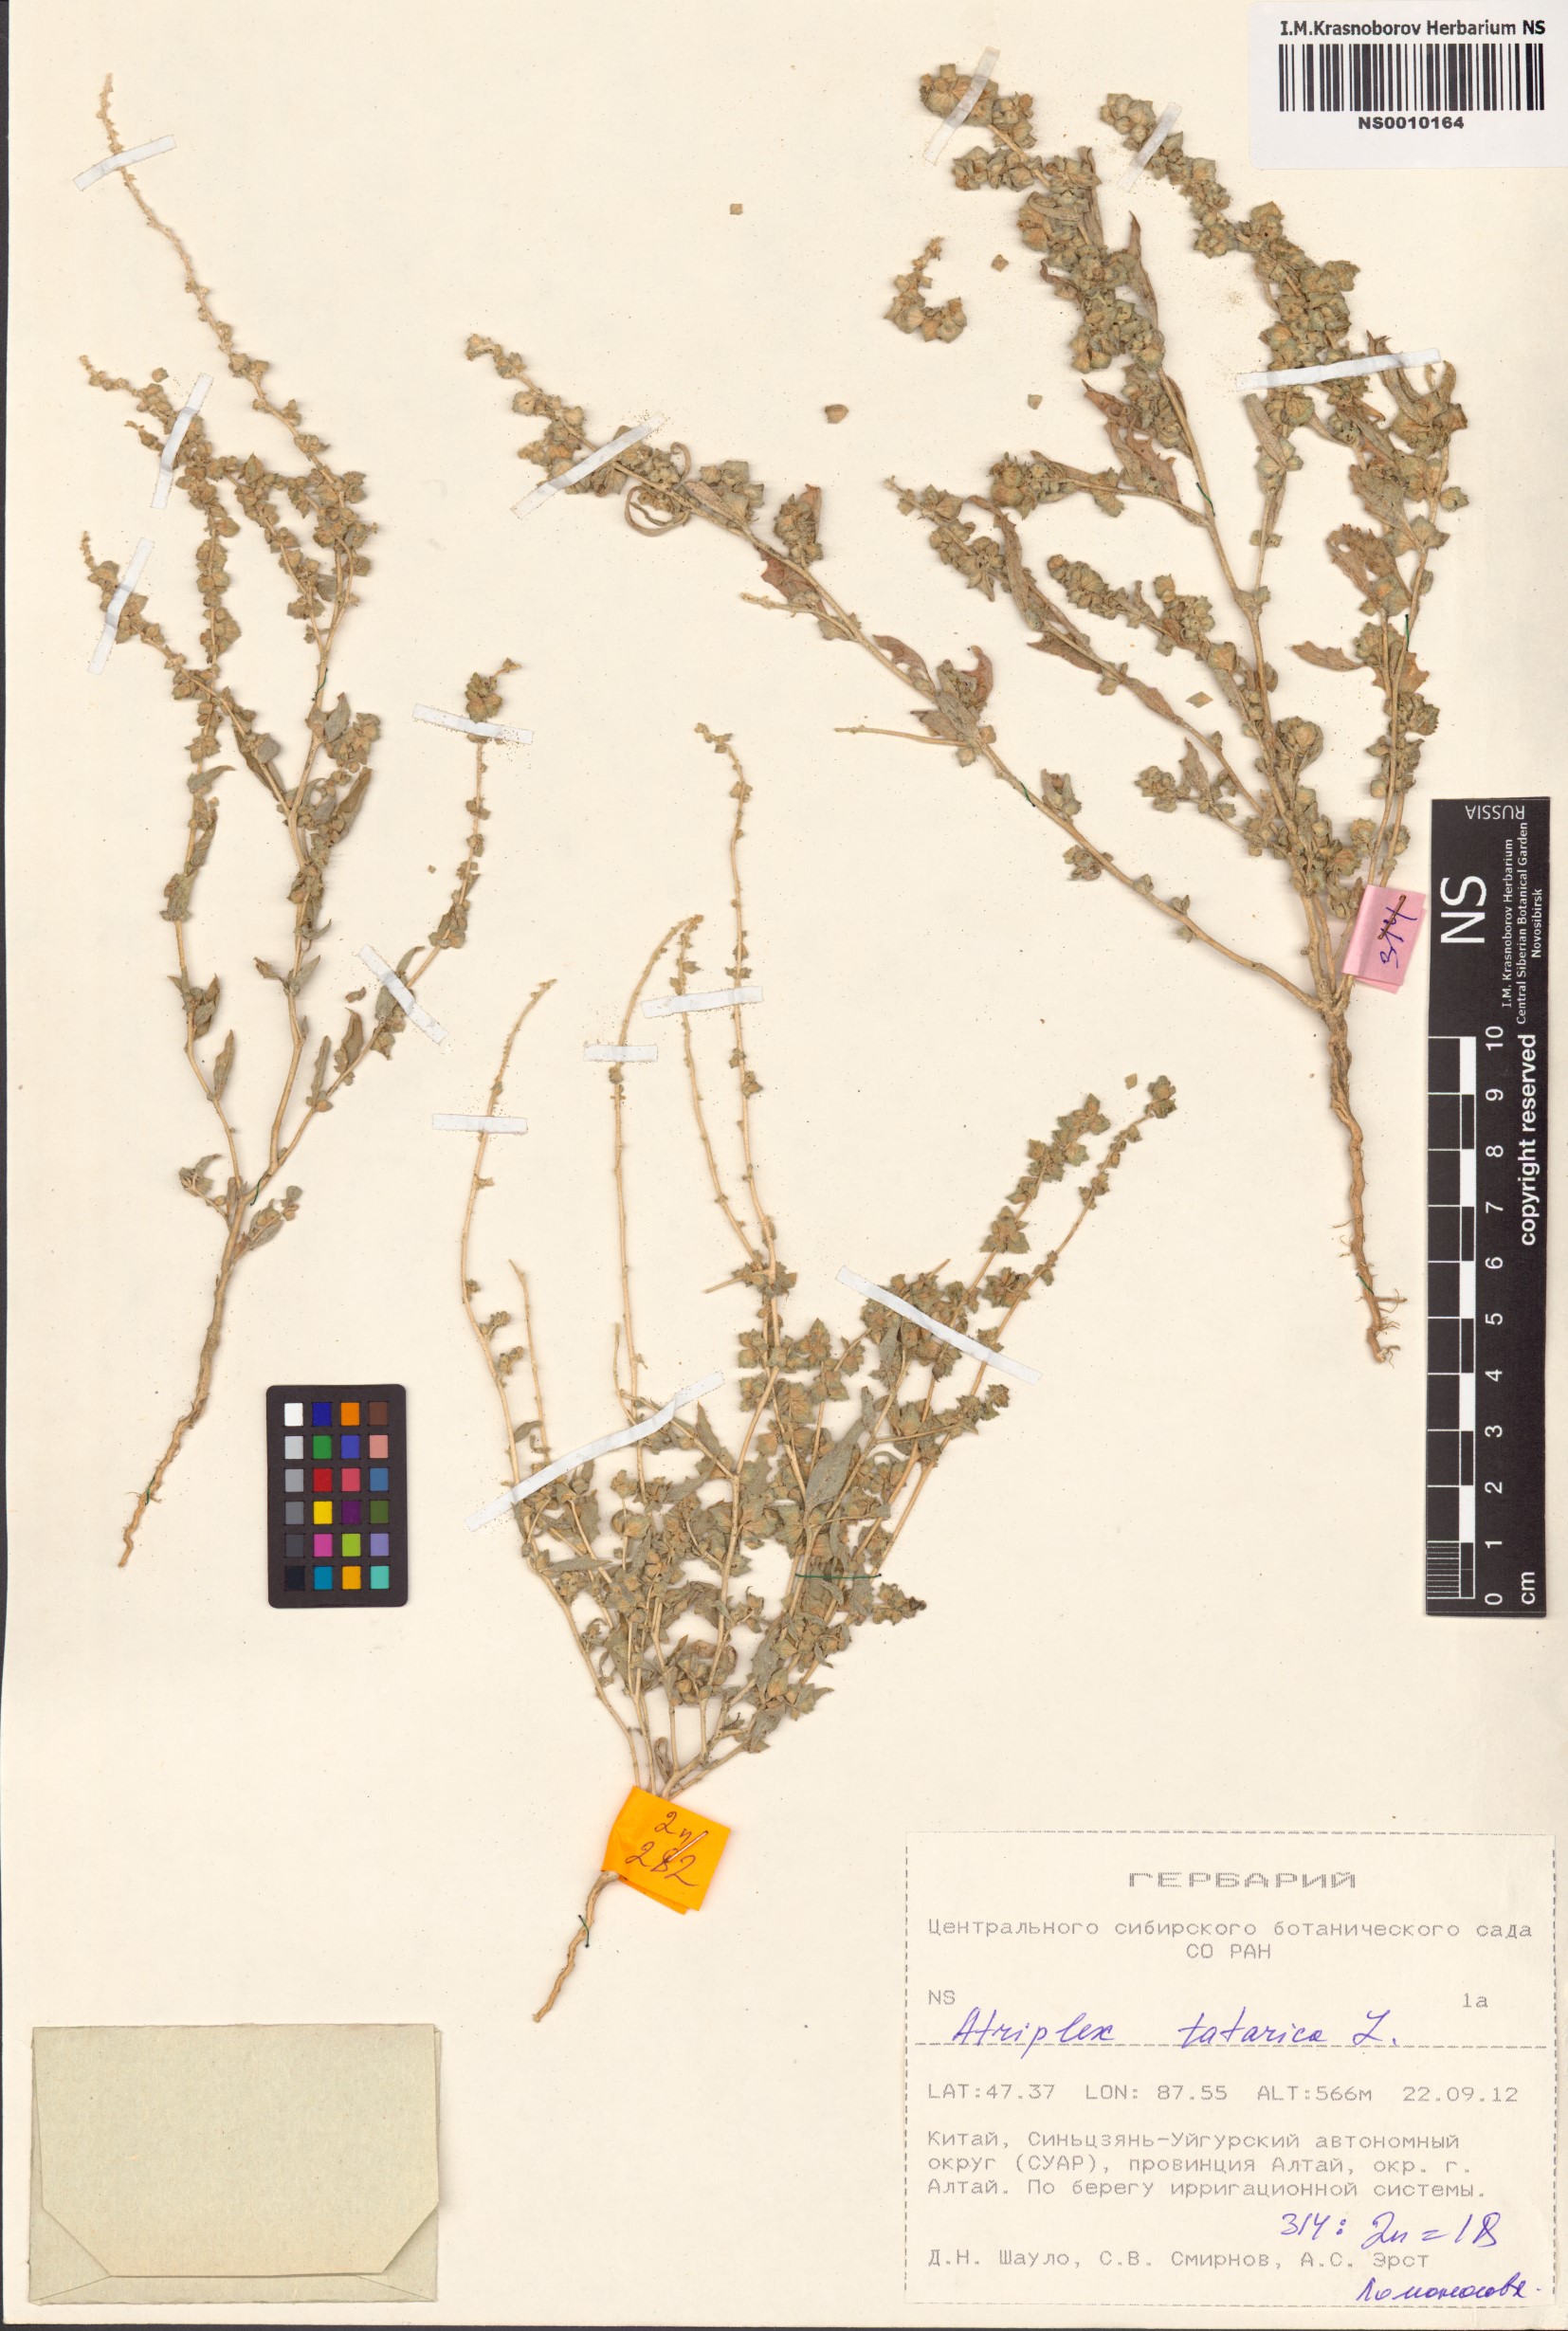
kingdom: Plantae
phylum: Tracheophyta
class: Magnoliopsida
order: Caryophyllales
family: Amaranthaceae
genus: Atriplex
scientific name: Atriplex tatarica
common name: Tatarian orache
